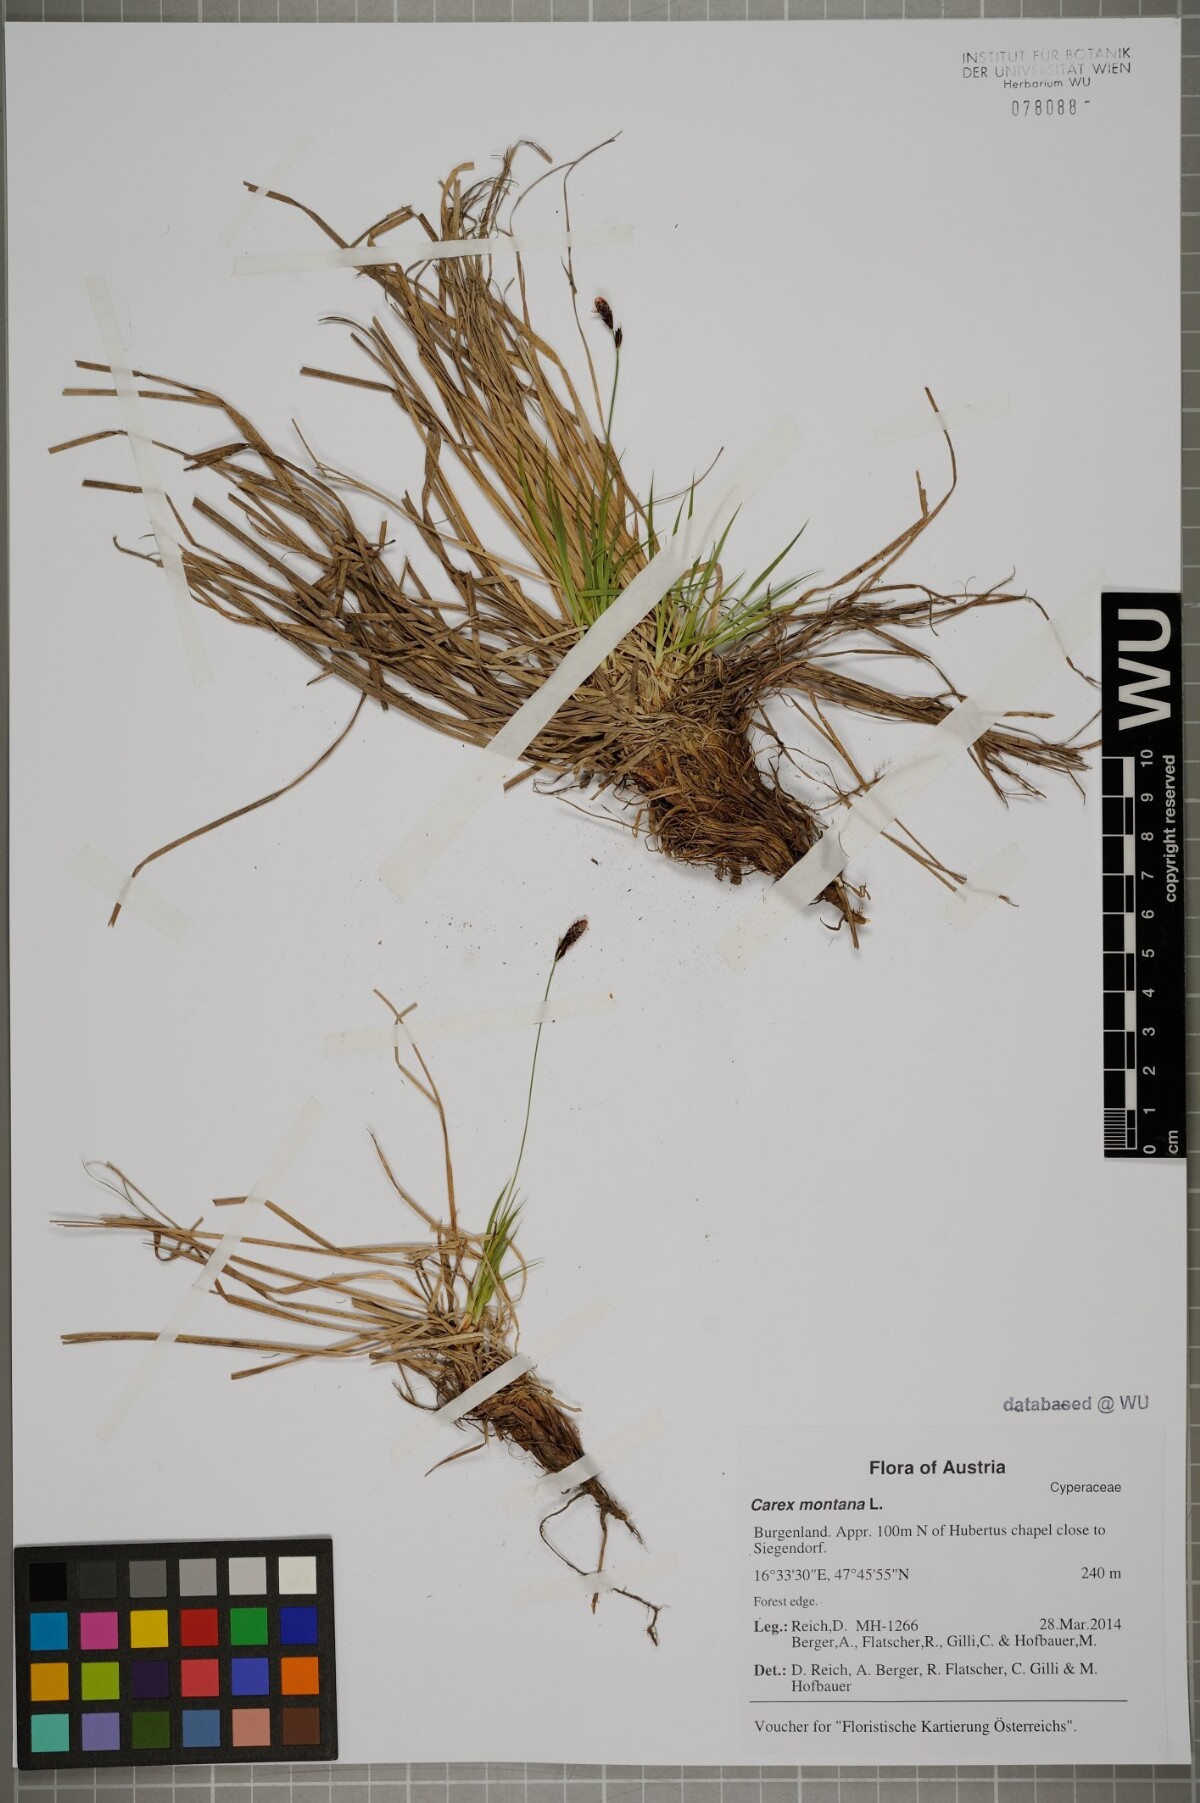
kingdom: Plantae
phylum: Tracheophyta
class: Liliopsida
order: Poales
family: Cyperaceae
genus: Carex
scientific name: Carex montana
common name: Soft-leaved sedge
